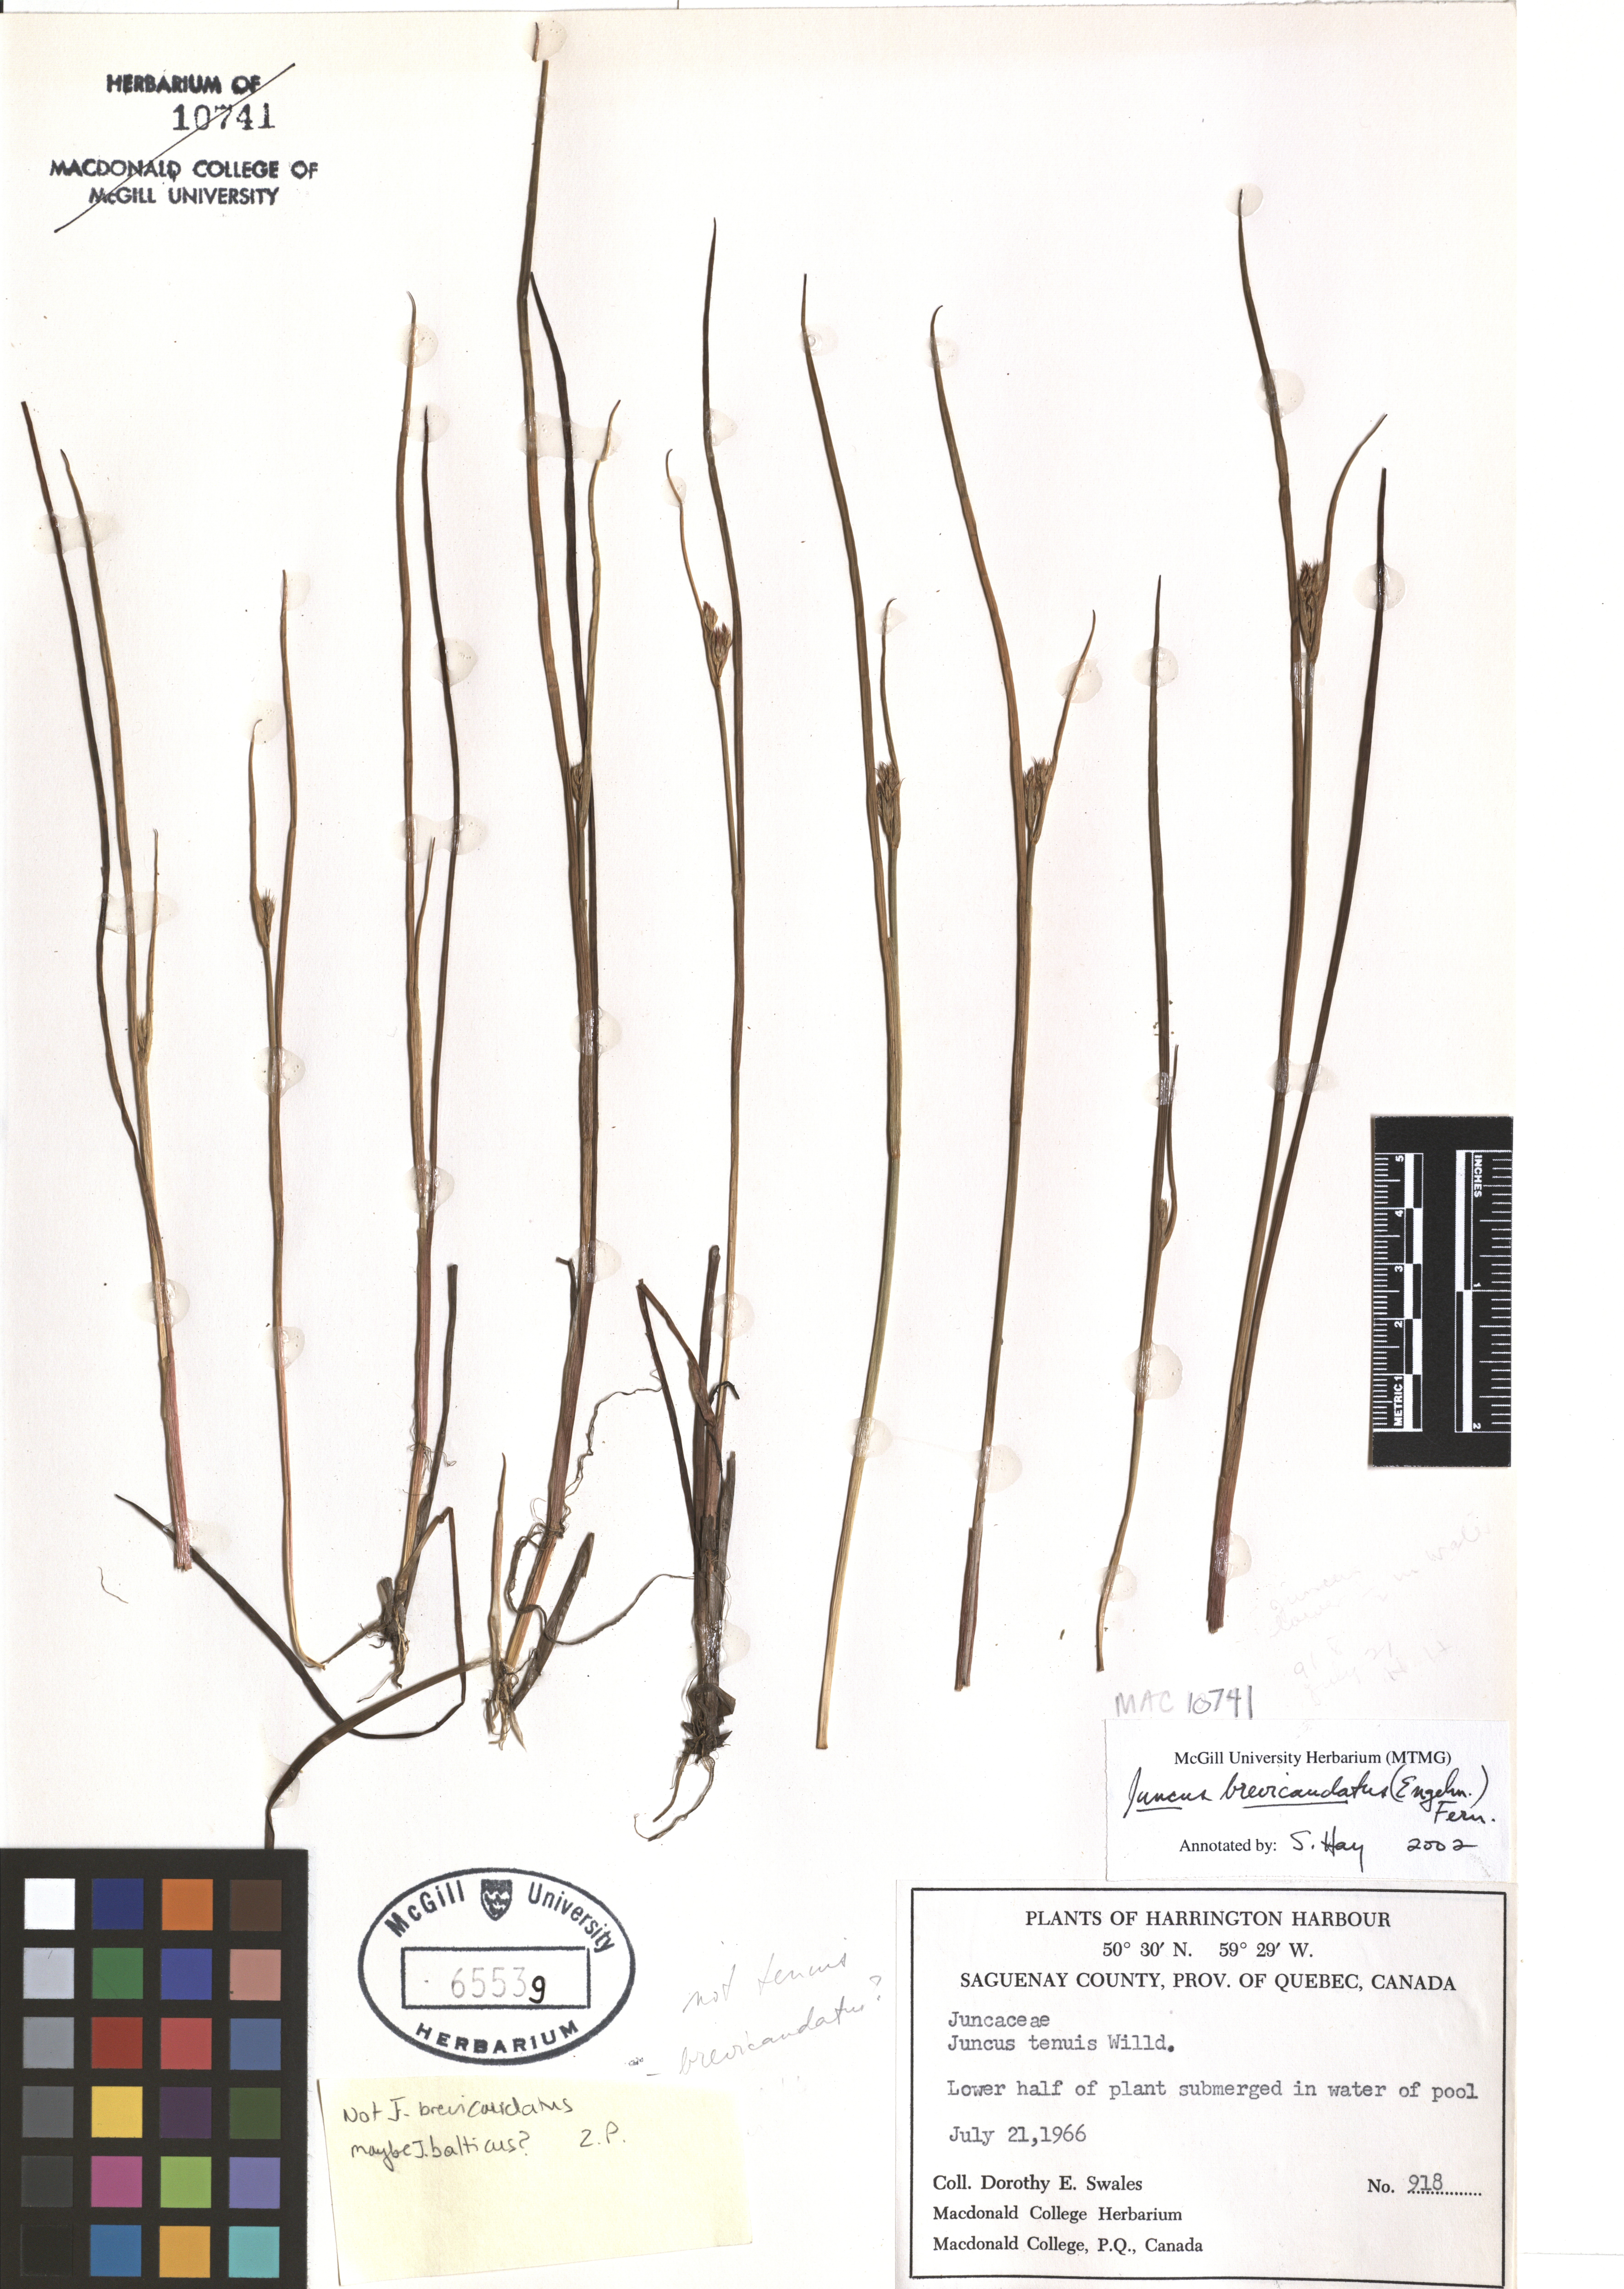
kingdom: Plantae
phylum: Tracheophyta
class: Liliopsida
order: Poales
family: Juncaceae
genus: Juncus
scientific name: Juncus brevicaudatus
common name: Narrow-panicle rush
